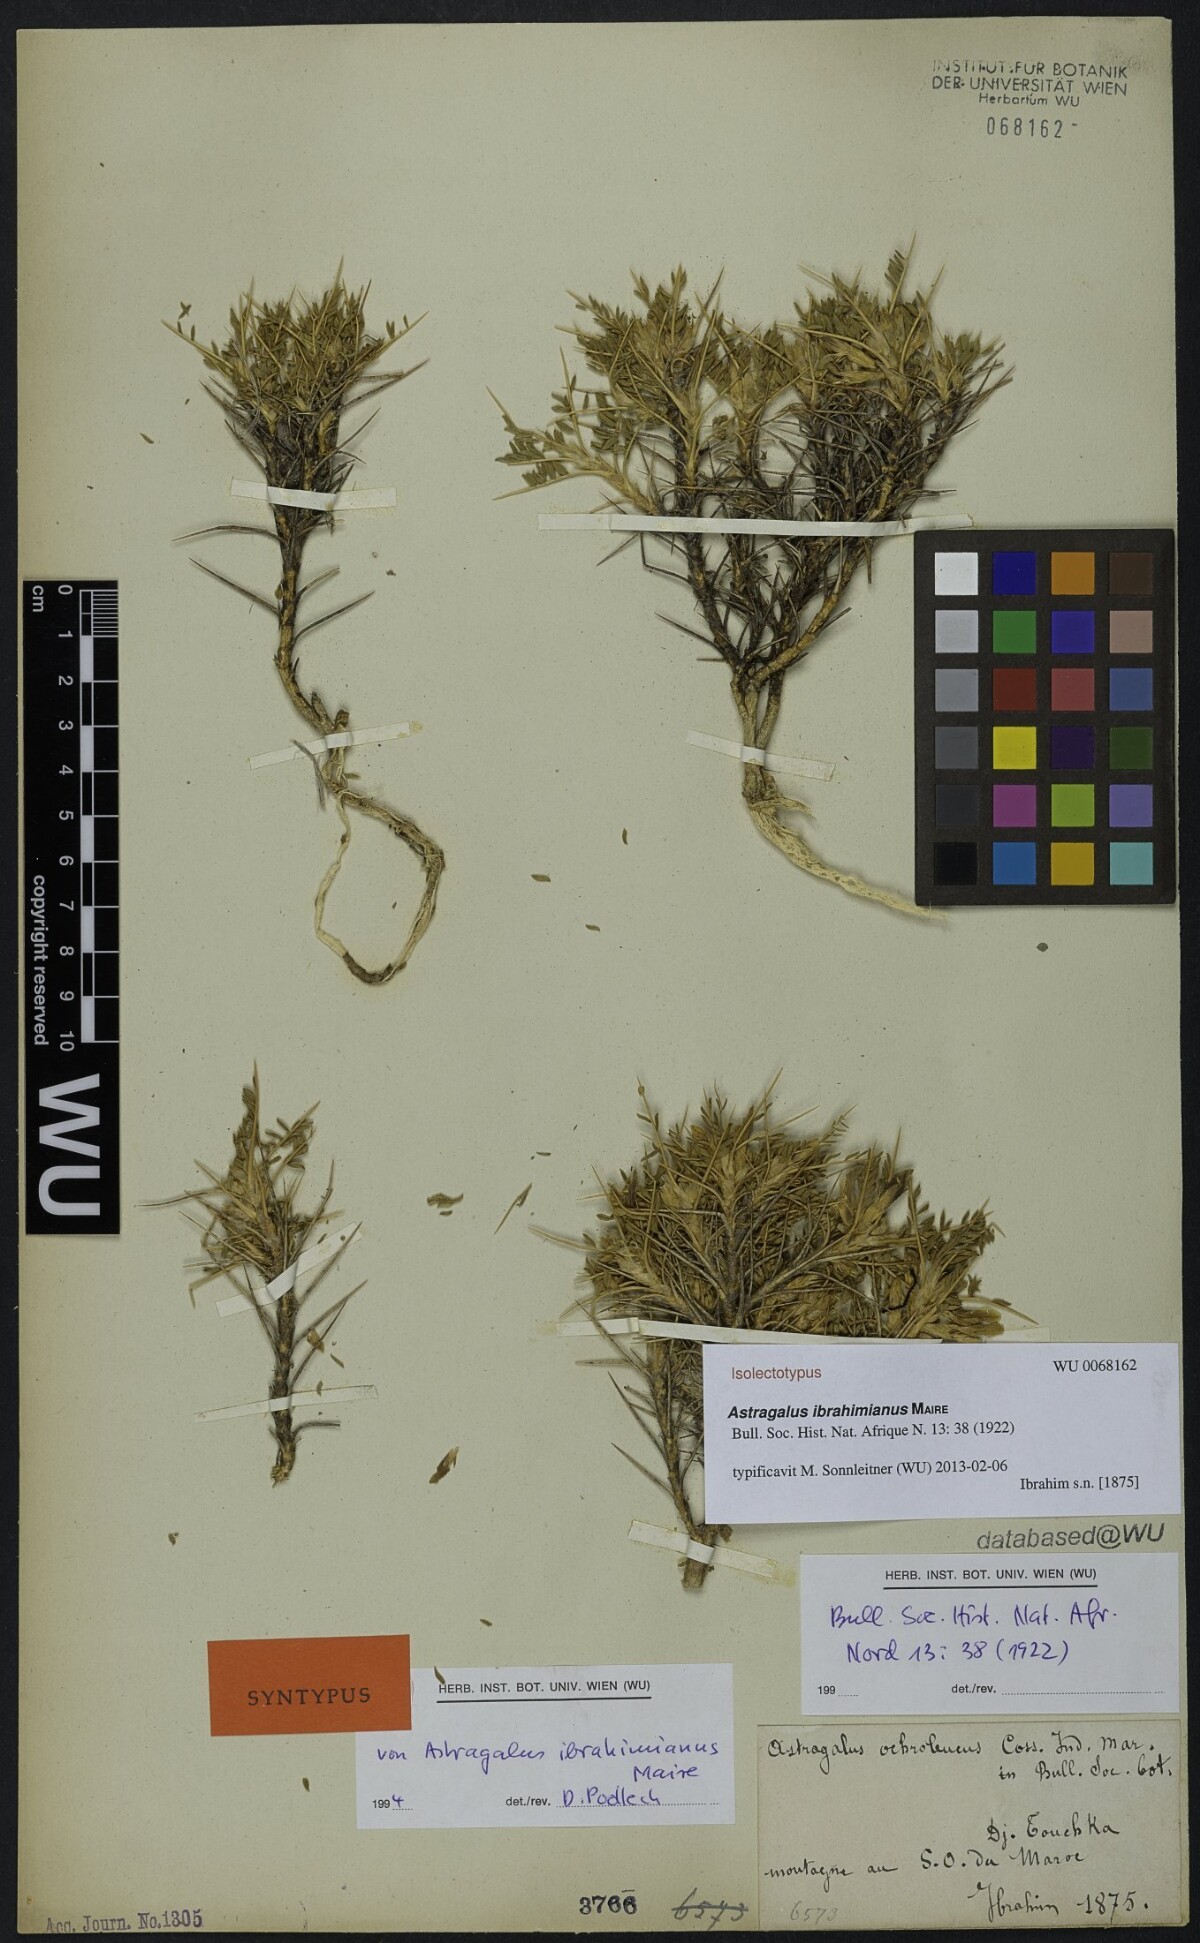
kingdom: Plantae
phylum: Tracheophyta
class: Magnoliopsida
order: Fabales
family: Fabaceae
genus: Astragalus
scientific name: Astragalus ibrahimianus
